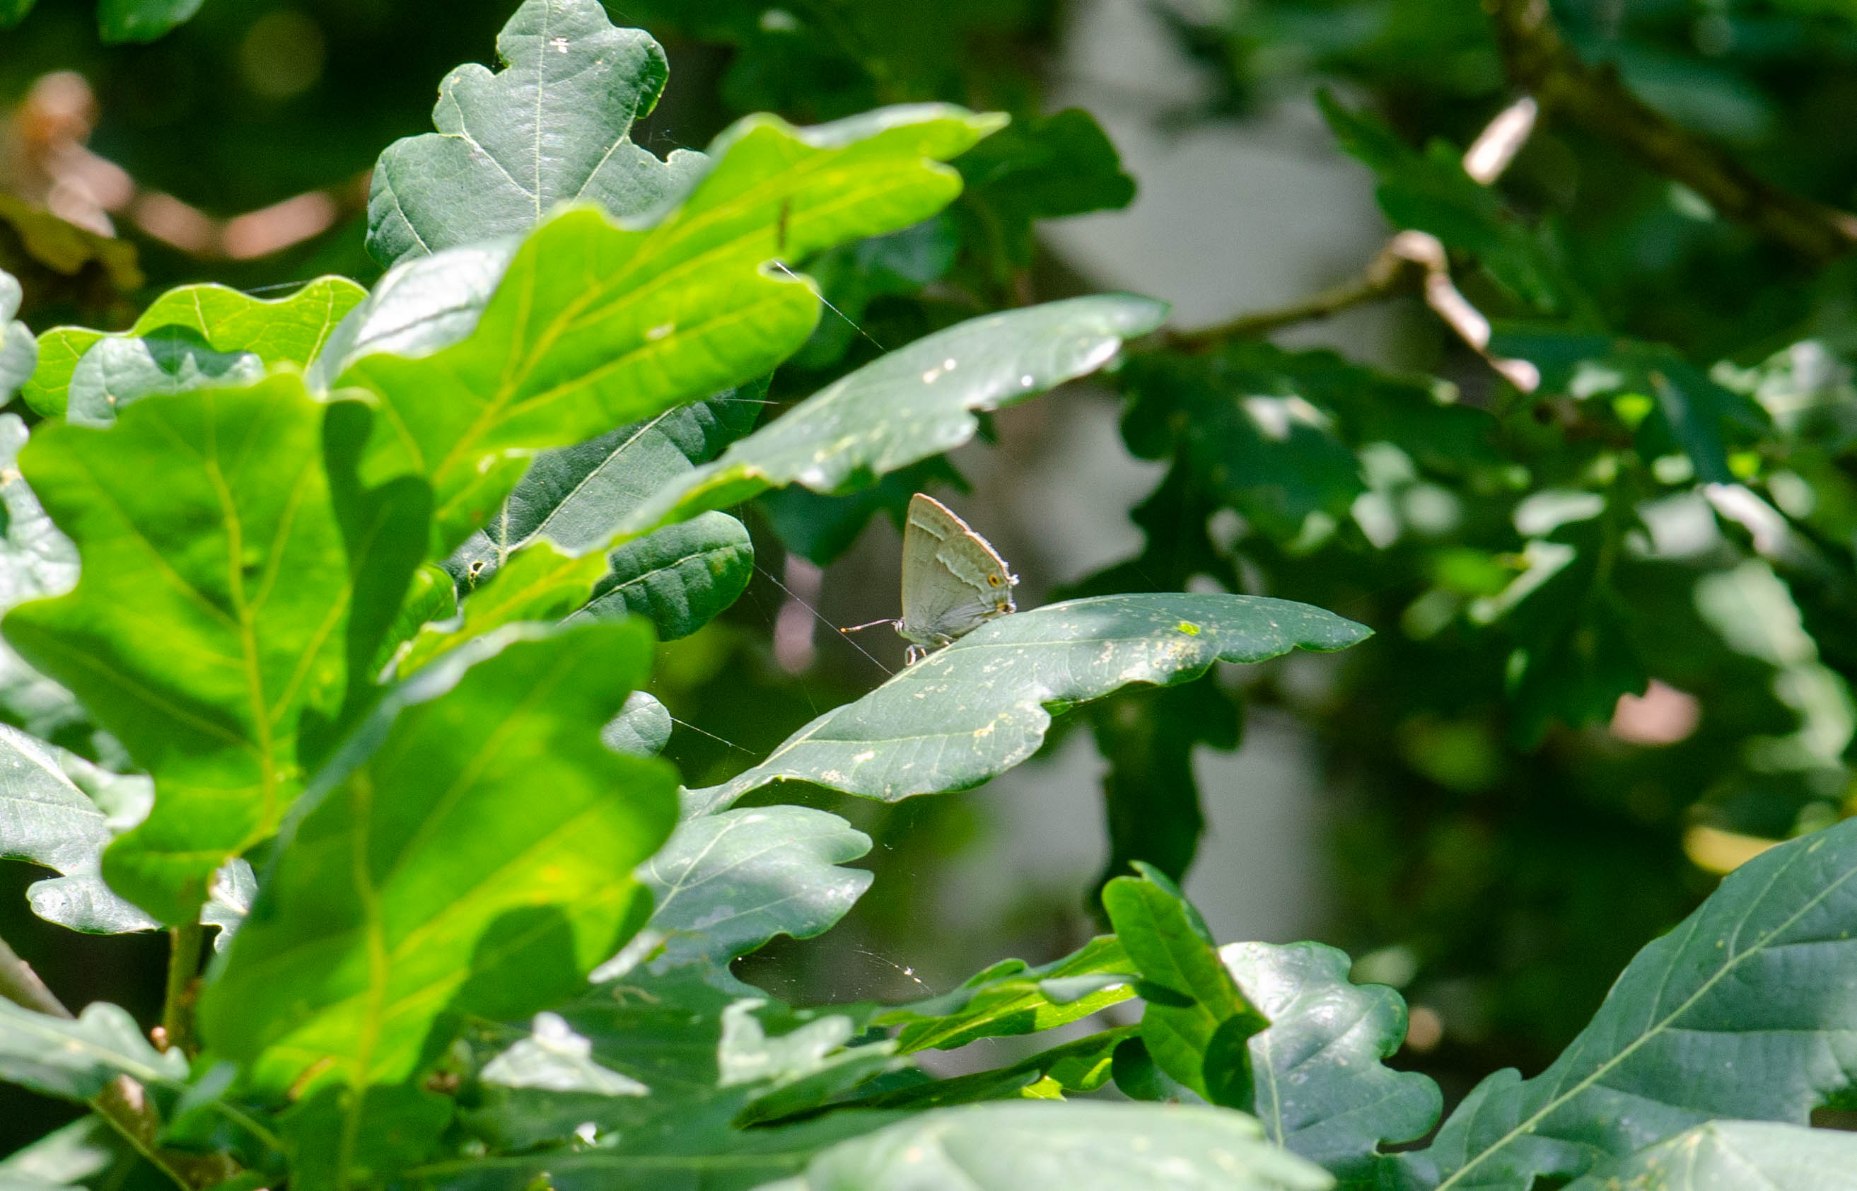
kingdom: Animalia
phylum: Arthropoda
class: Insecta
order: Lepidoptera
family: Lycaenidae
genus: Quercusia
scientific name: Quercusia quercus
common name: Blåhale
